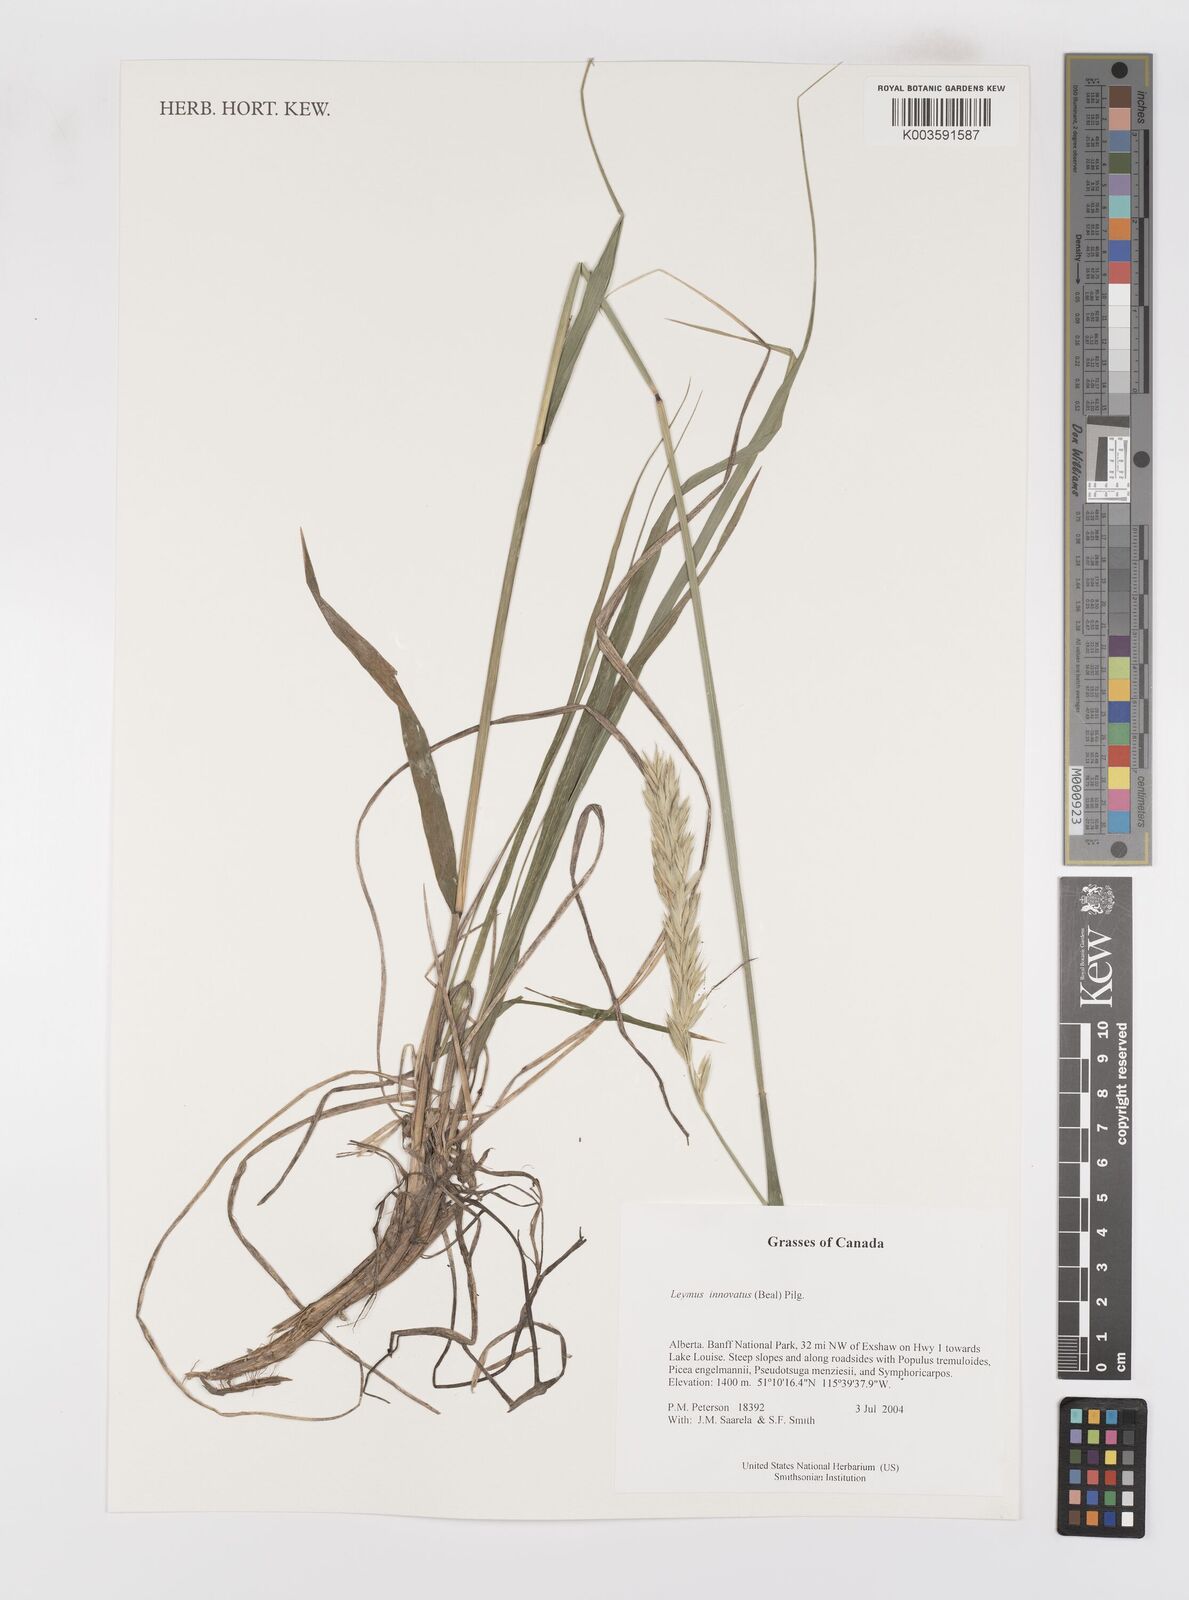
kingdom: Plantae
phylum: Tracheophyta
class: Liliopsida
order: Poales
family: Poaceae
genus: Leymus
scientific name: Leymus innovatus
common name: Boreal wild rye
